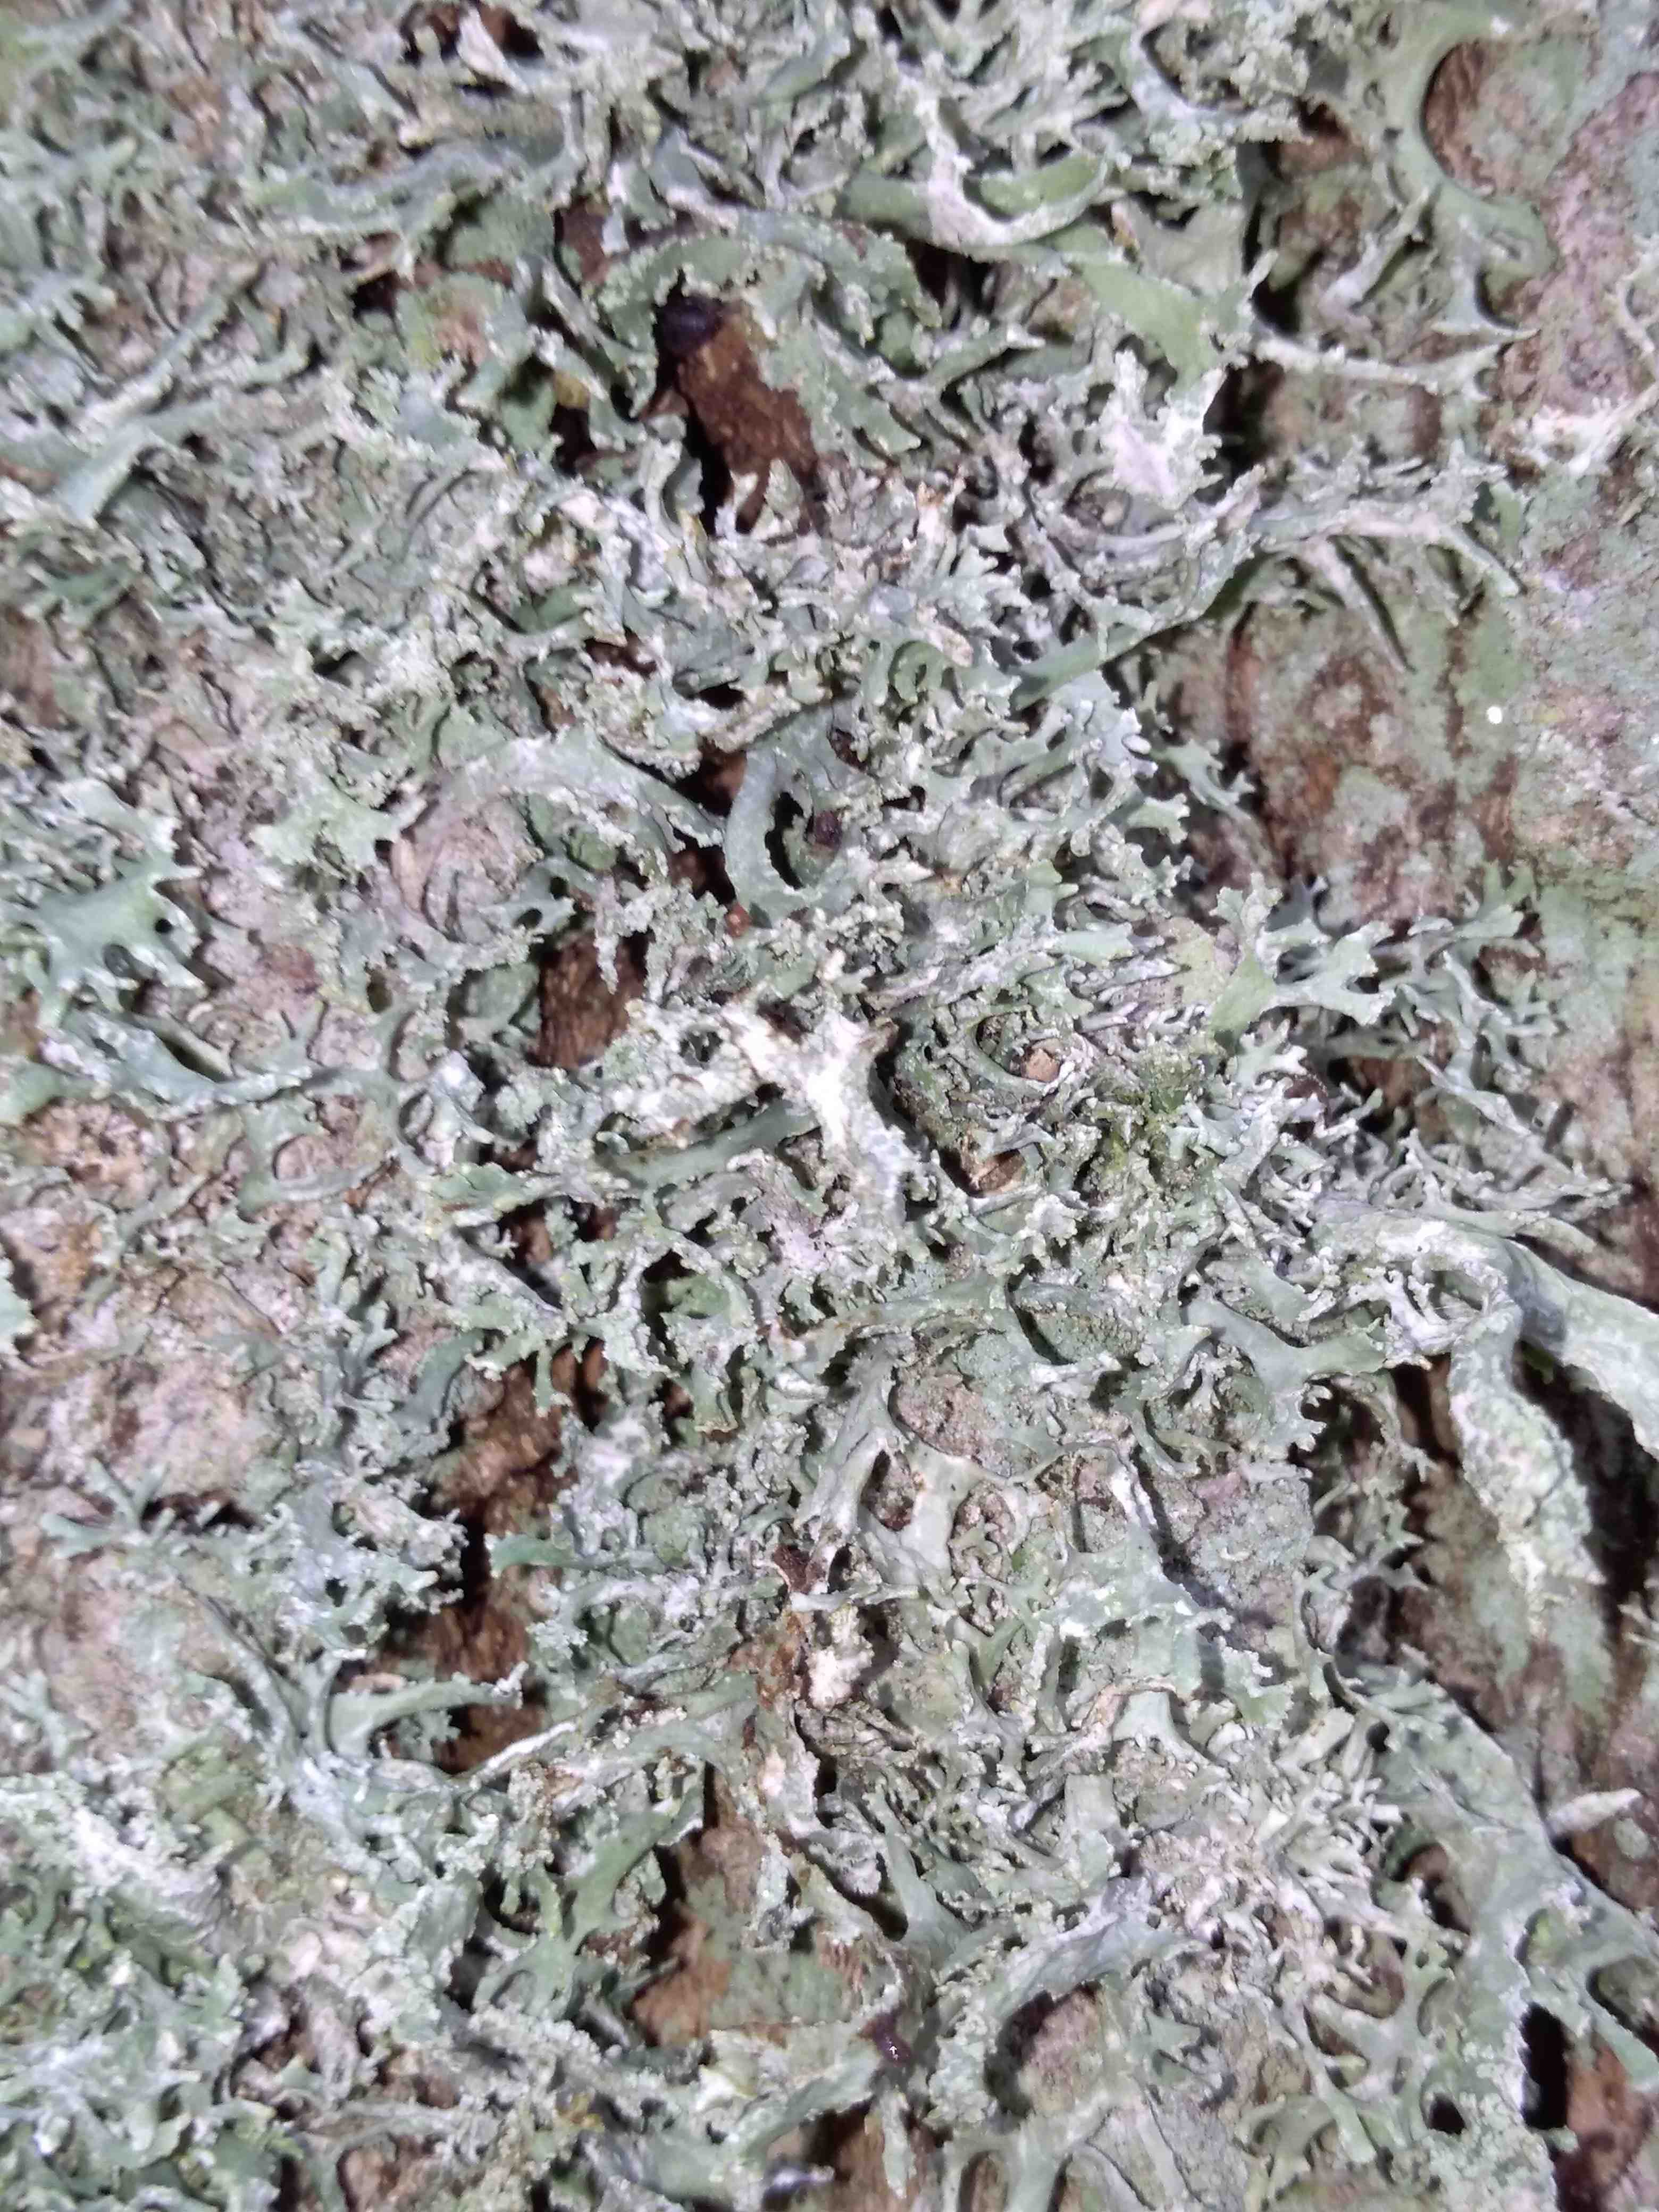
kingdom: Fungi
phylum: Ascomycota
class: Lecanoromycetes
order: Lecanorales
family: Parmeliaceae
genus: Evernia
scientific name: Evernia prunastri
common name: almindelig slåenlav
